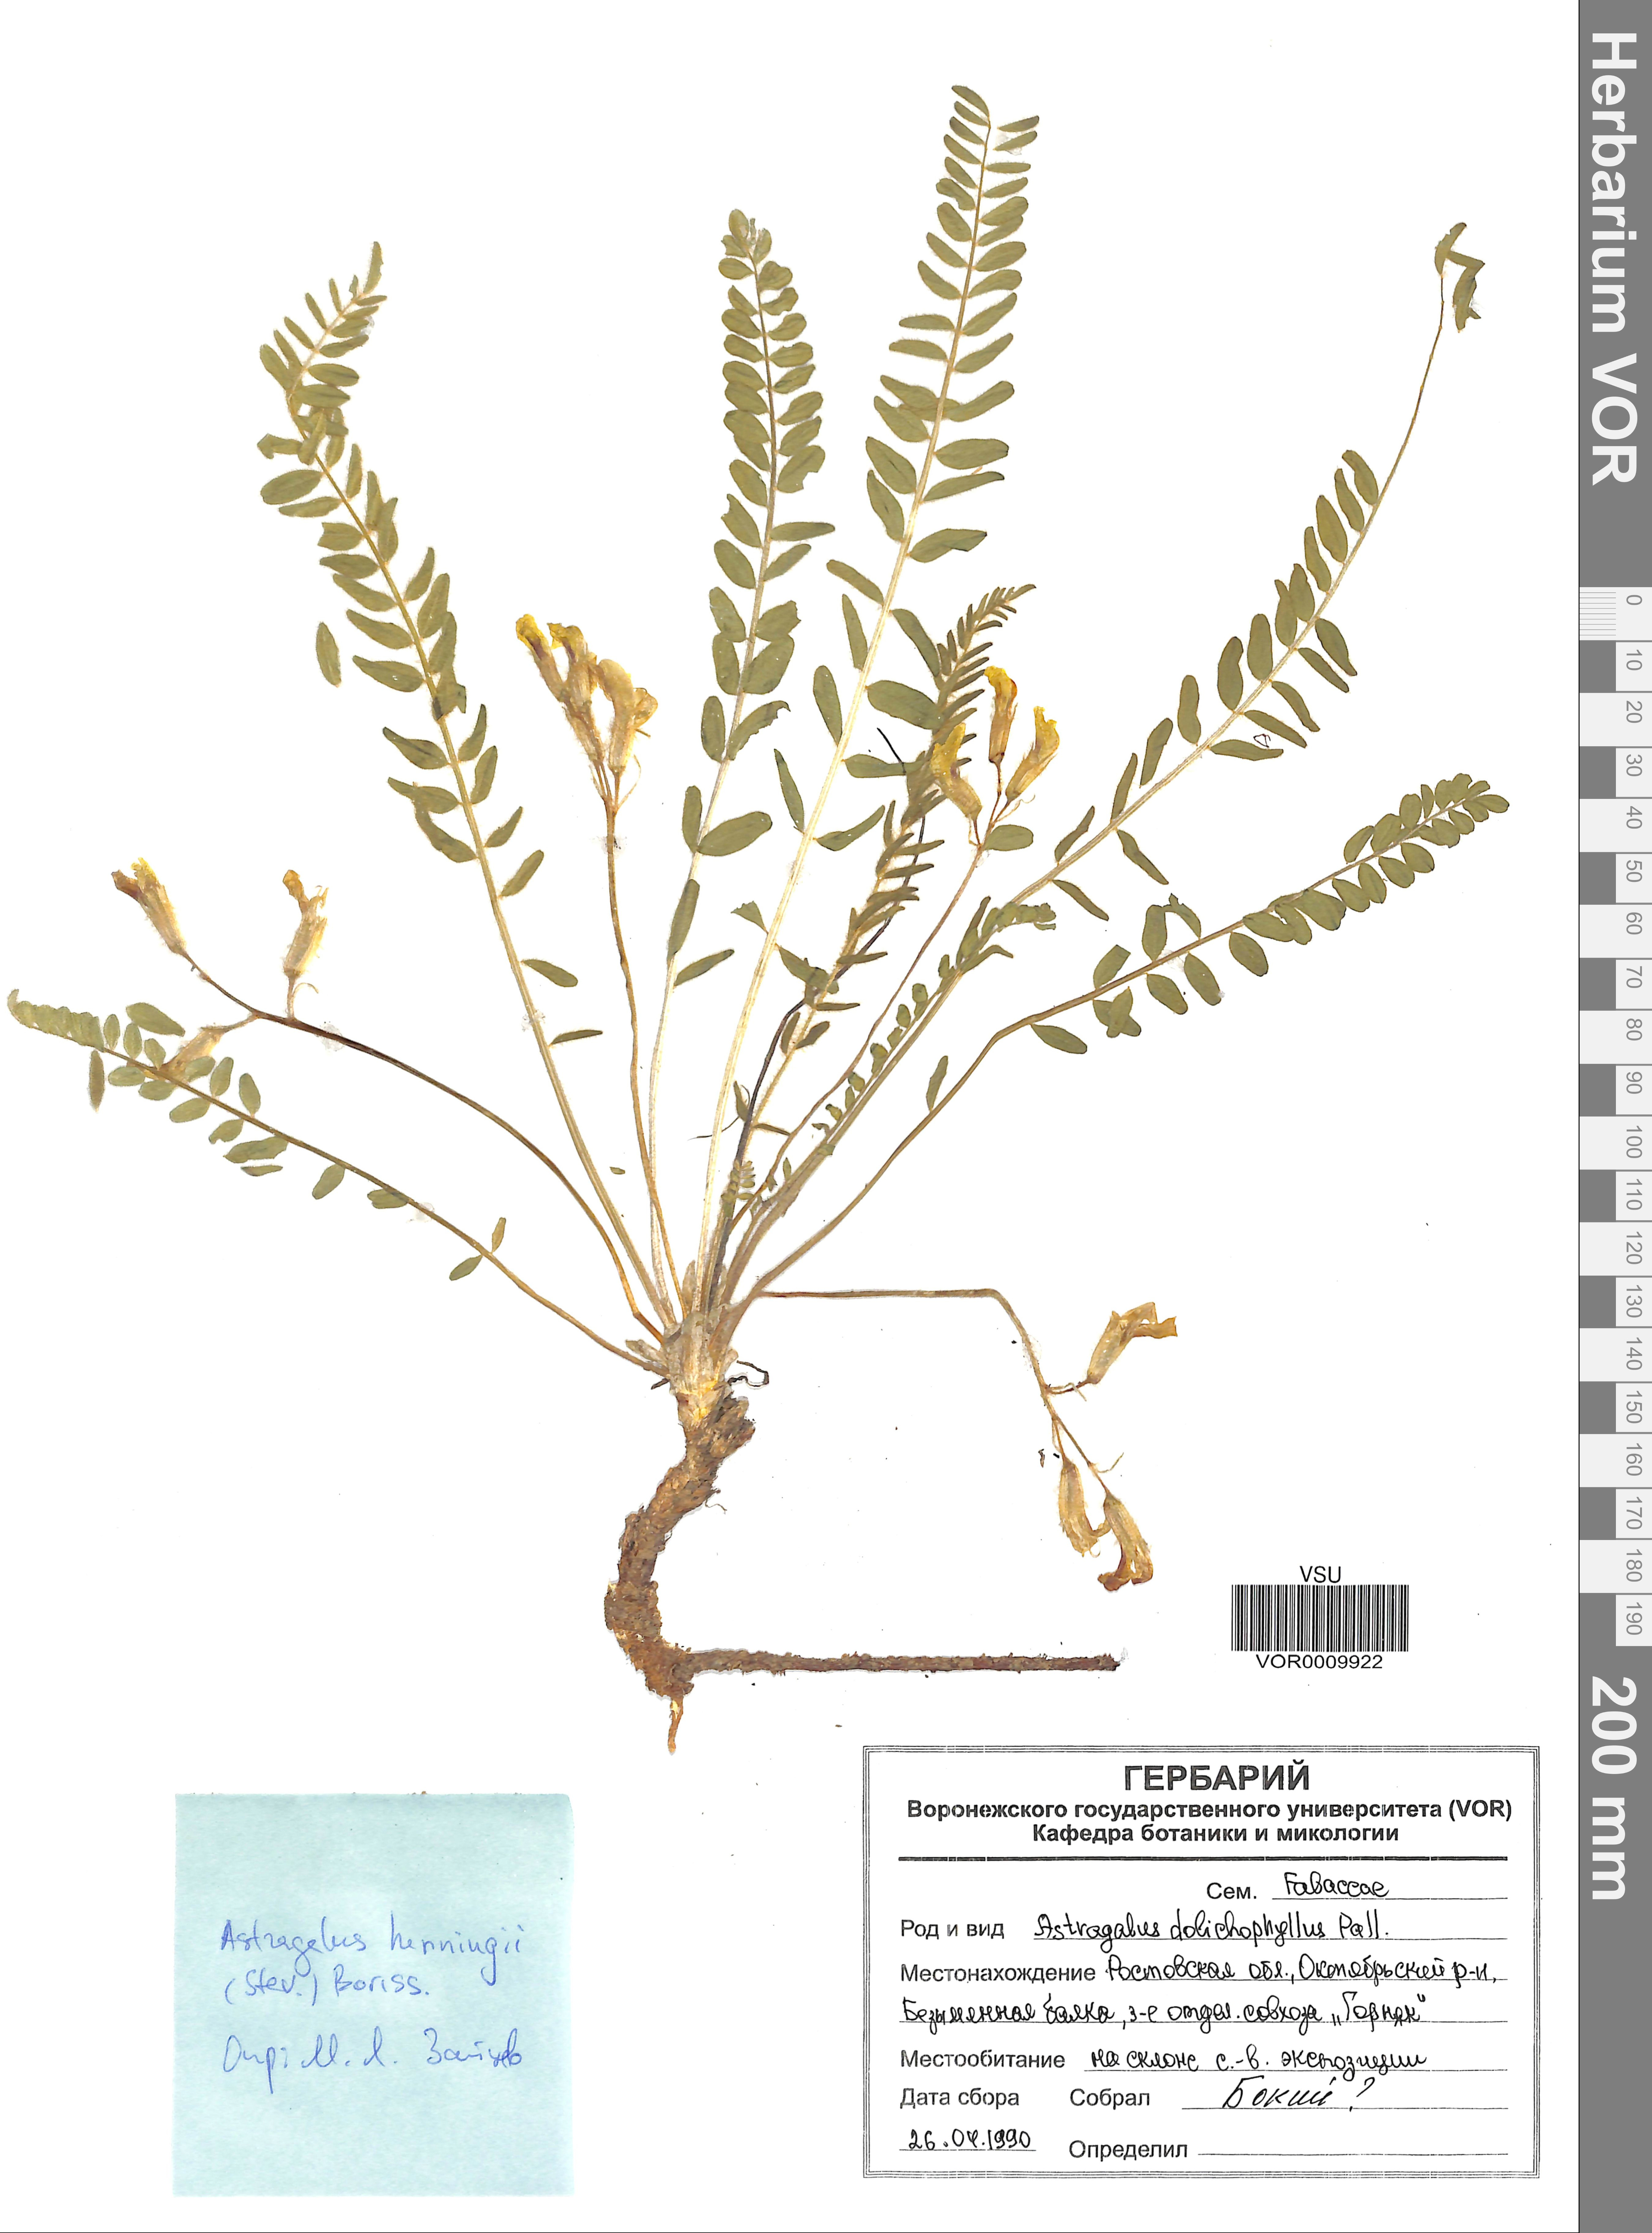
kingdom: Plantae
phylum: Tracheophyta
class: Magnoliopsida
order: Fabales
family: Fabaceae
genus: Astragalus
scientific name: Astragalus buchtormensis
